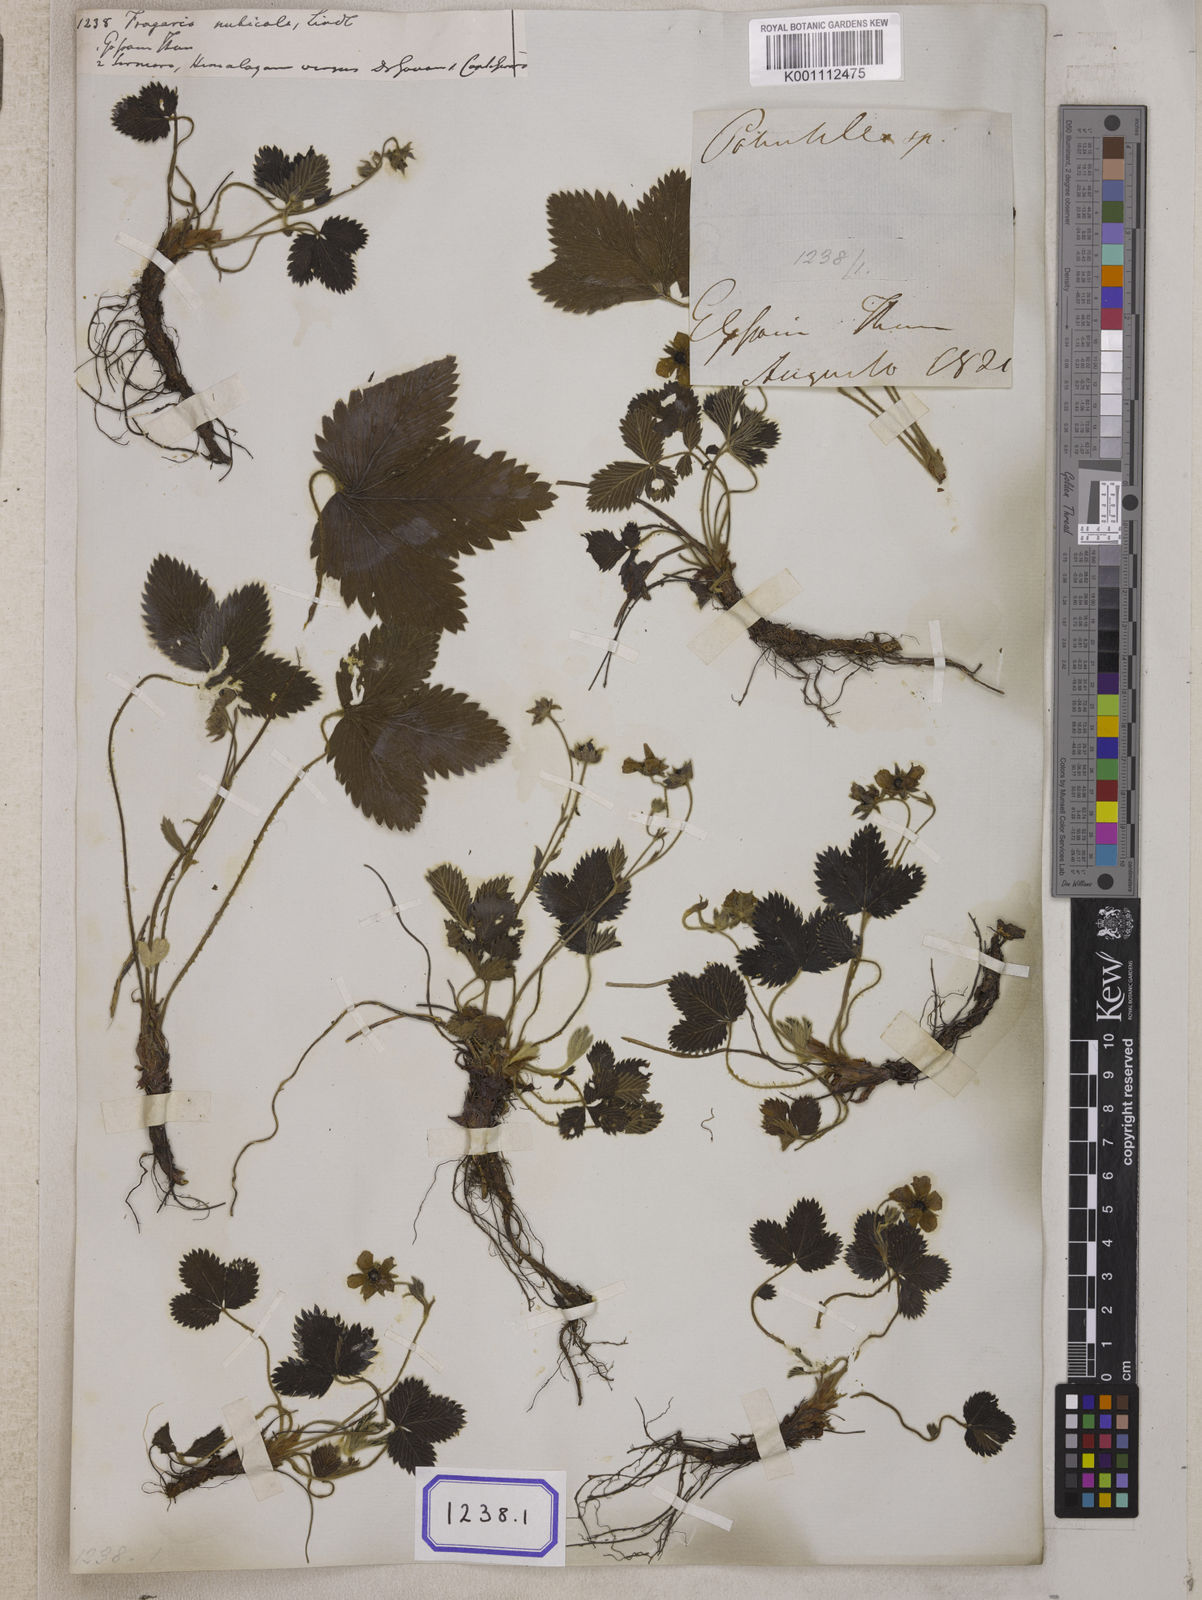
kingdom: Plantae
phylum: Tracheophyta
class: Magnoliopsida
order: Rosales
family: Rosaceae
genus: Fragaria
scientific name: Fragaria
